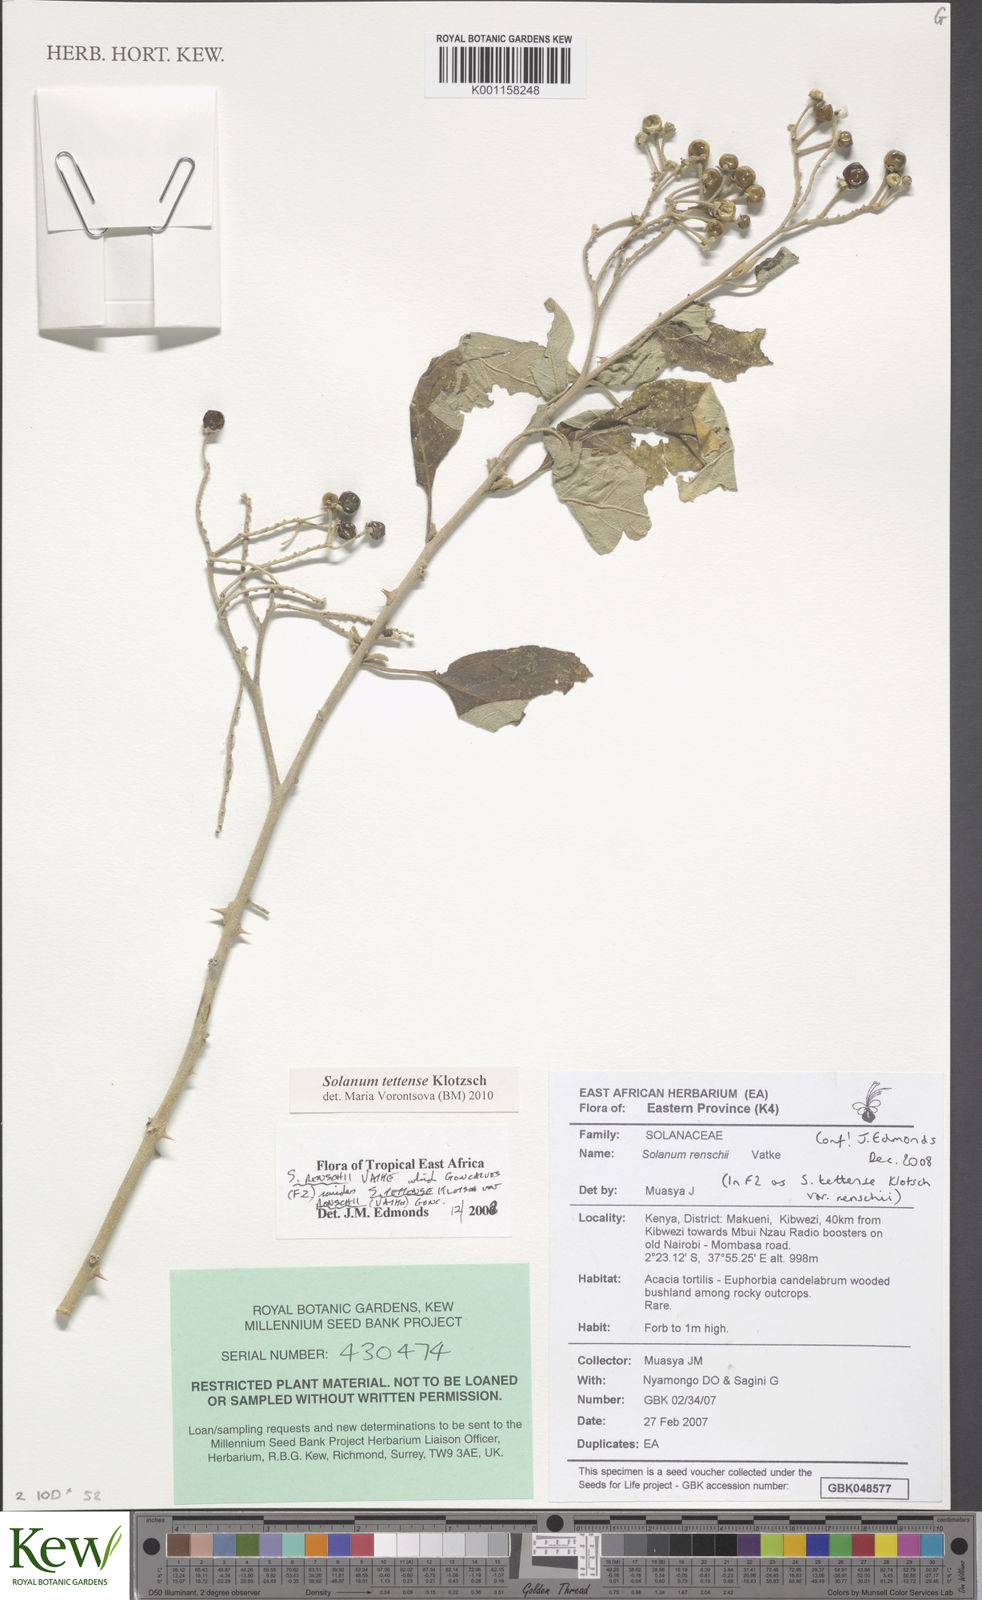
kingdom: Plantae
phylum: Tracheophyta
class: Magnoliopsida
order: Solanales
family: Solanaceae
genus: Solanum
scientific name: Solanum tettense
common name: Mozambique bitter apple
